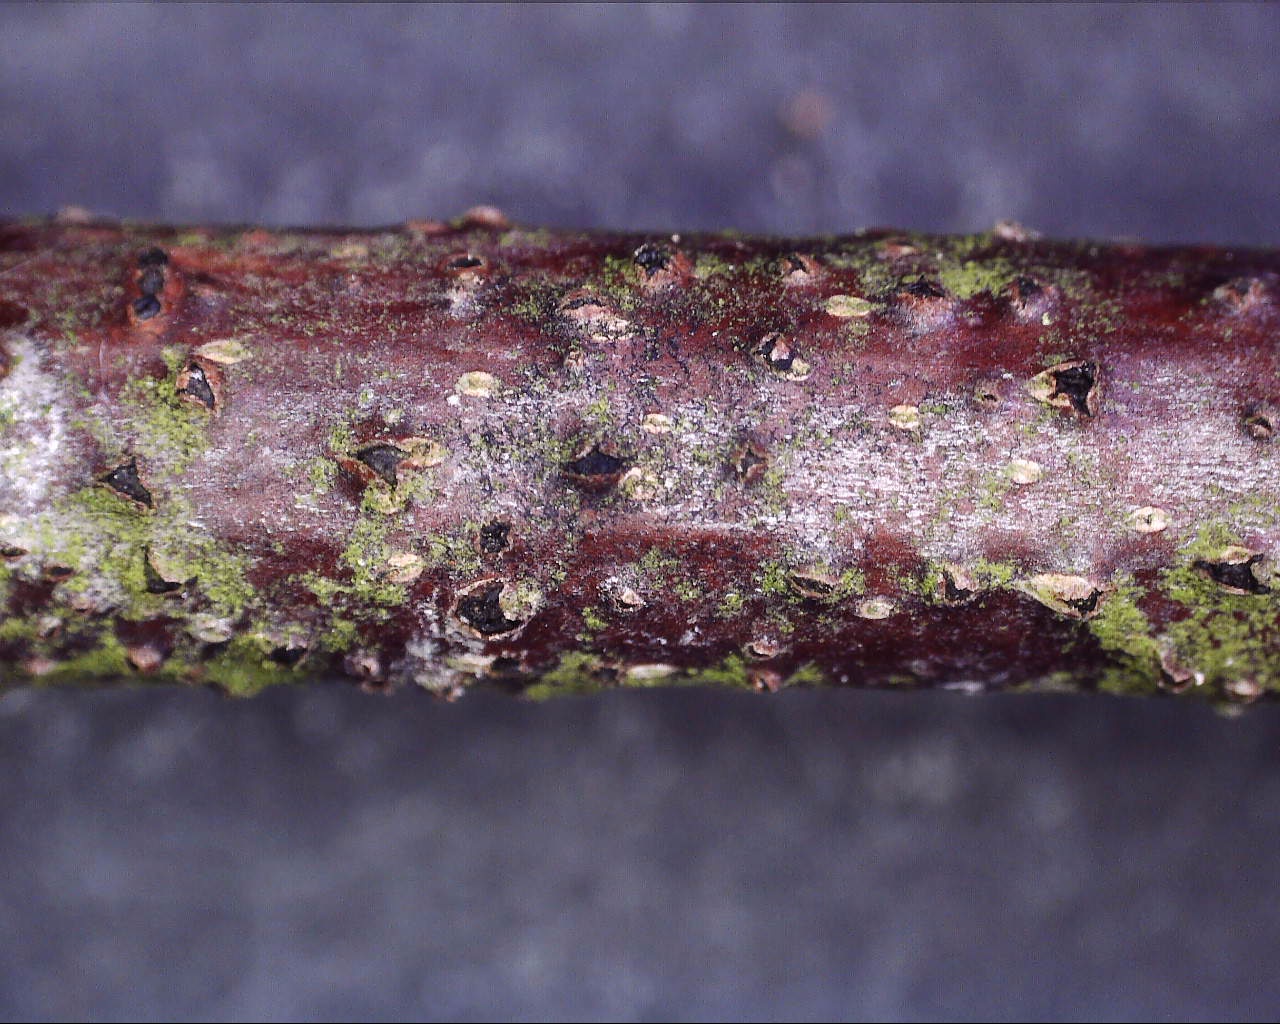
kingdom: Fungi
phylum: Ascomycota
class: Dothideomycetes
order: Botryosphaeriales
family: Botryosphaeriaceae
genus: Diplodia
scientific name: Diplodia
